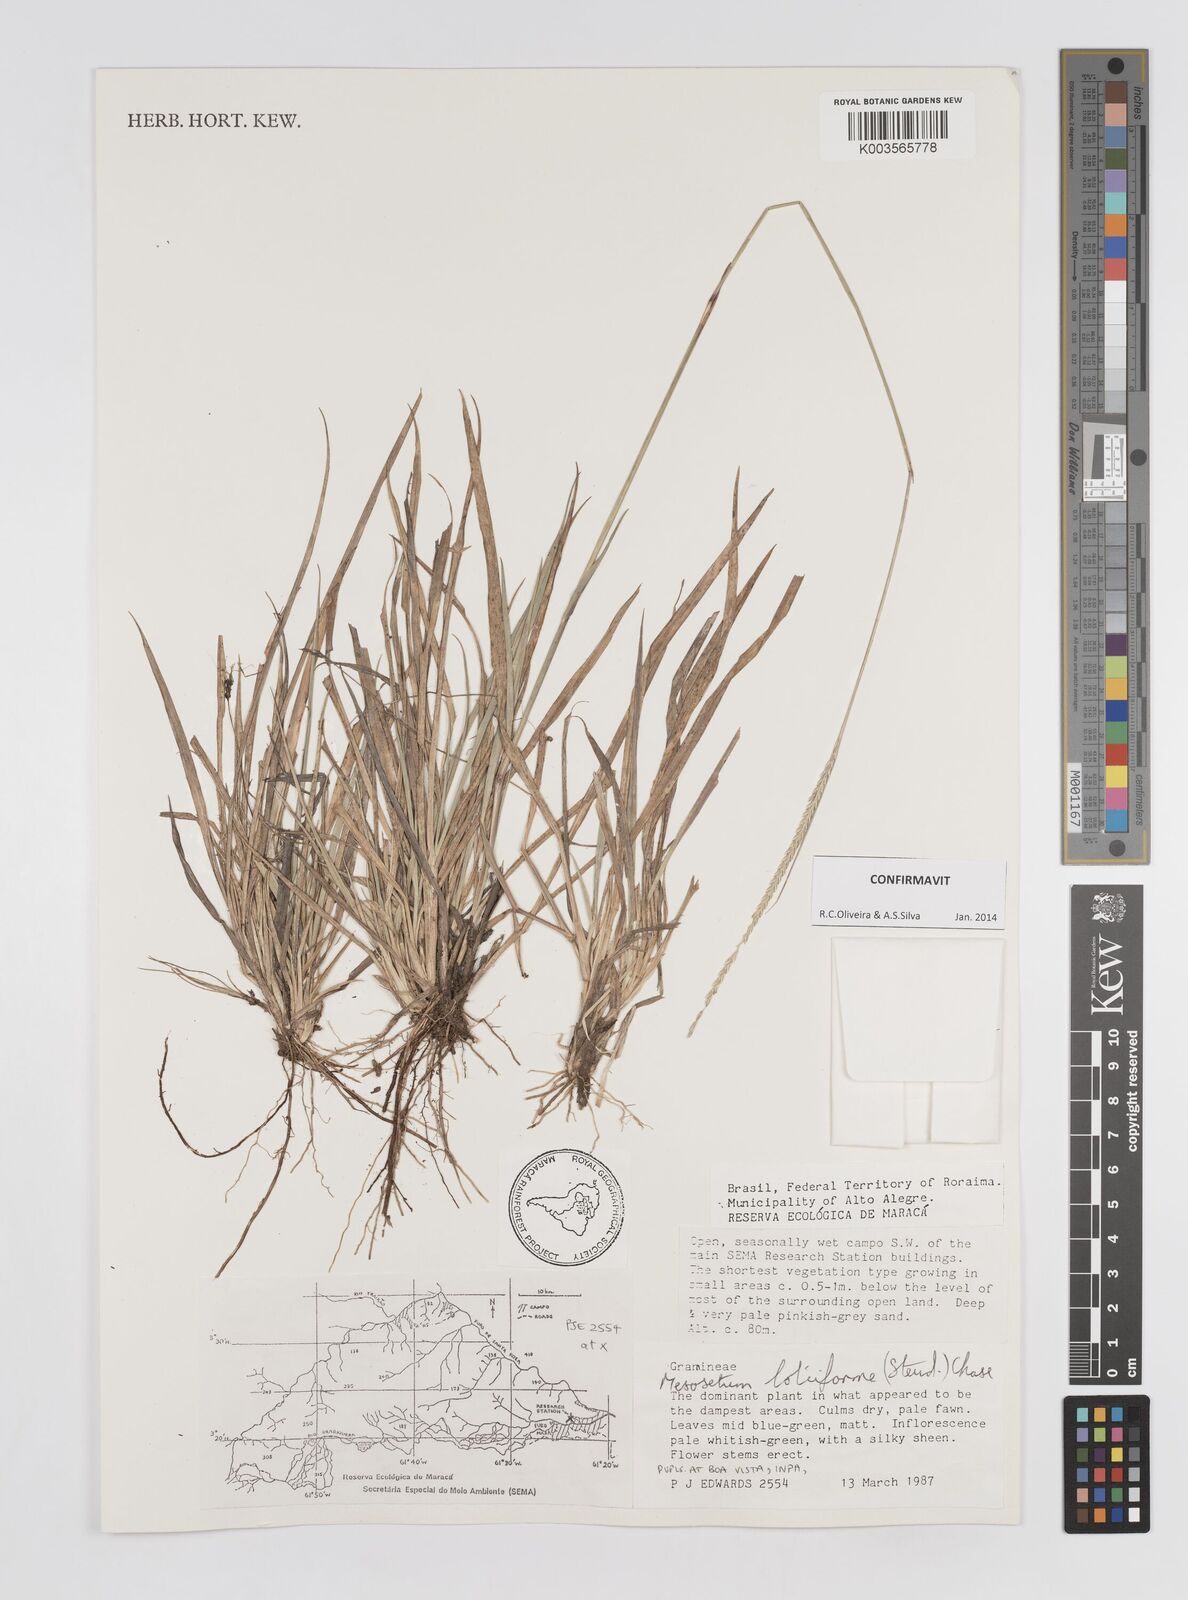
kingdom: Plantae
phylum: Tracheophyta
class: Liliopsida
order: Poales
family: Poaceae
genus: Mesosetum
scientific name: Mesosetum loliiforme
